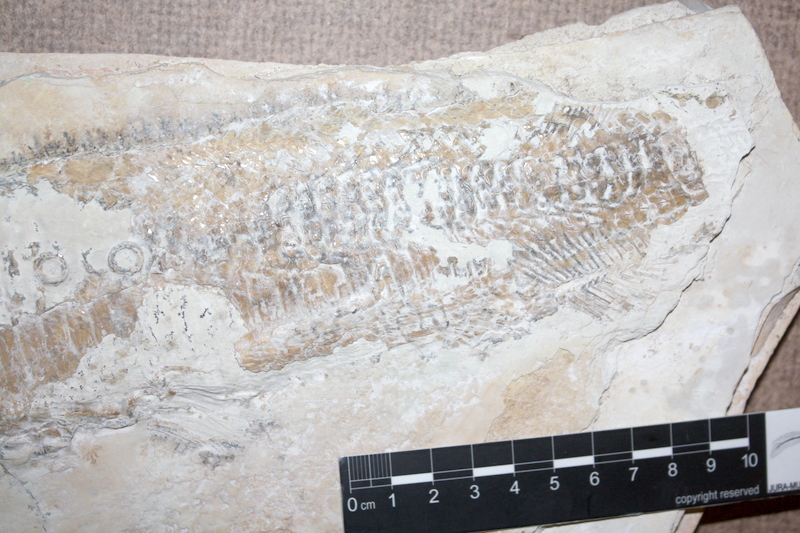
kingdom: Animalia
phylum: Chordata
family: Aspidorhynchidae
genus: Aspidorhynchus
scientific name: Aspidorhynchus acutirostris
